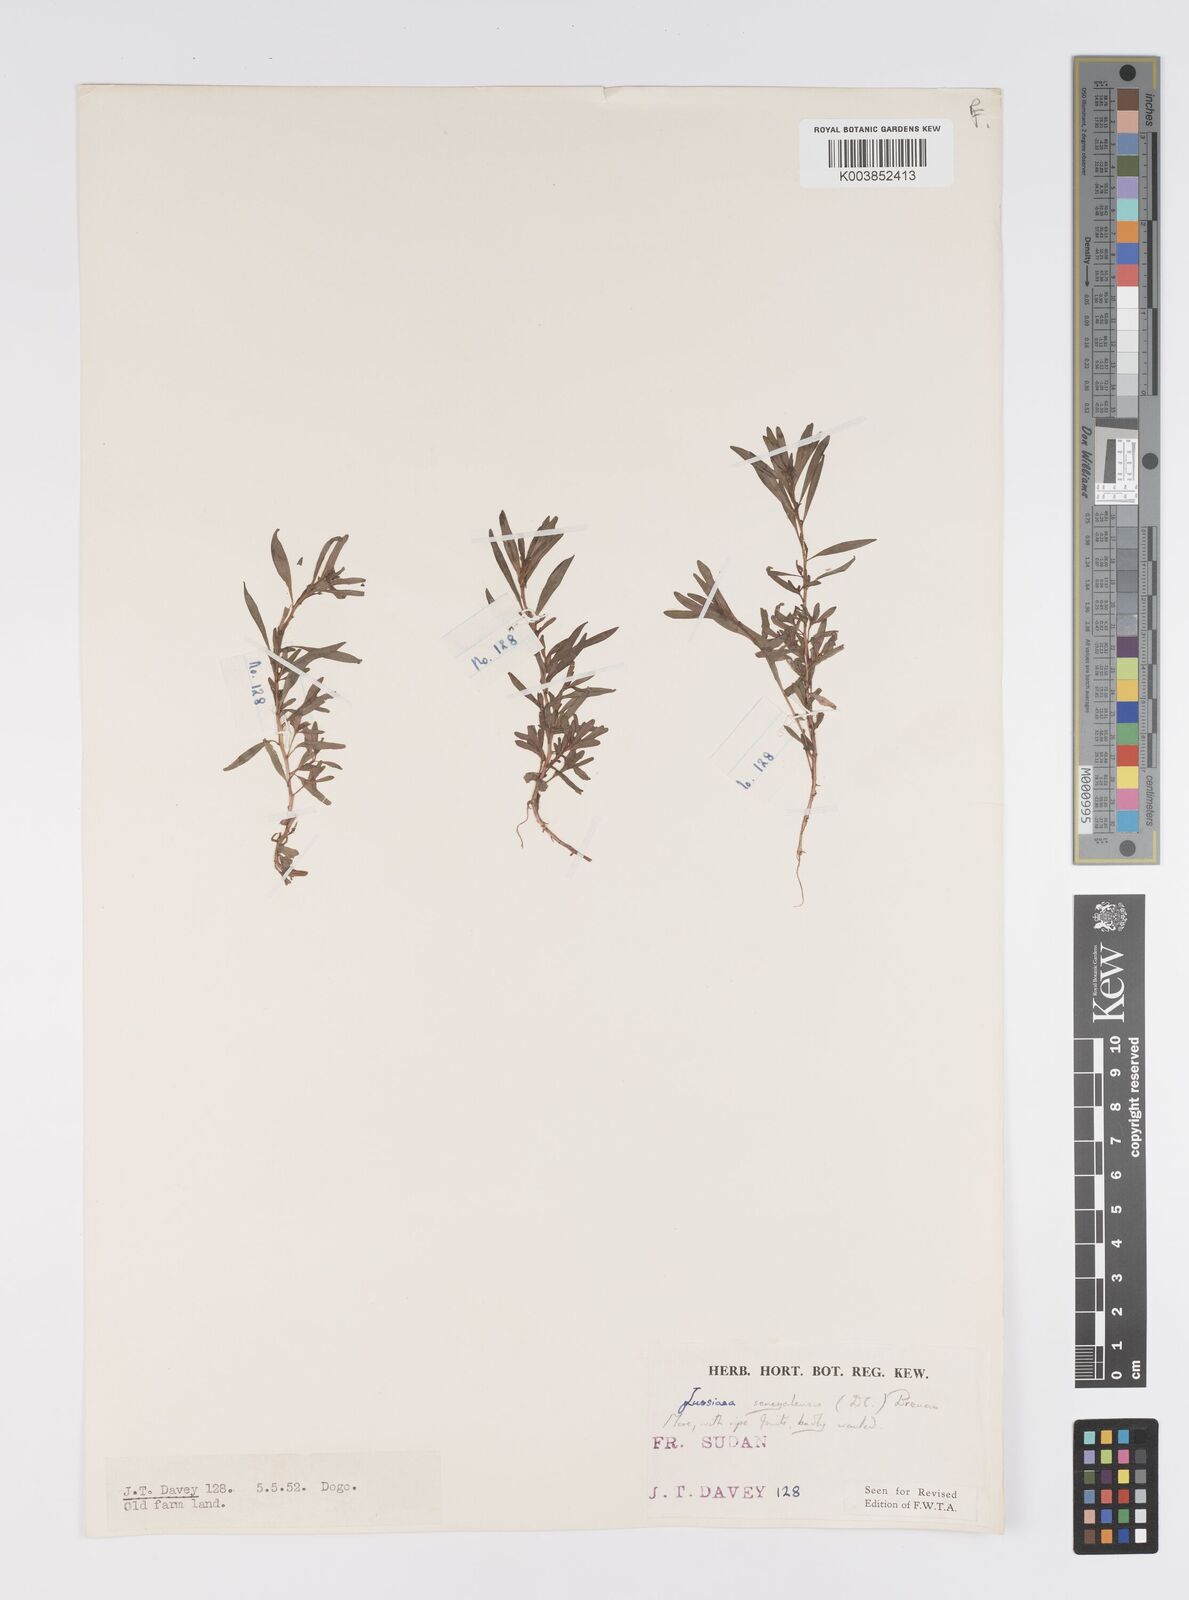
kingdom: Plantae
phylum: Tracheophyta
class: Magnoliopsida
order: Myrtales
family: Onagraceae
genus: Ludwigia
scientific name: Ludwigia senegalensis
